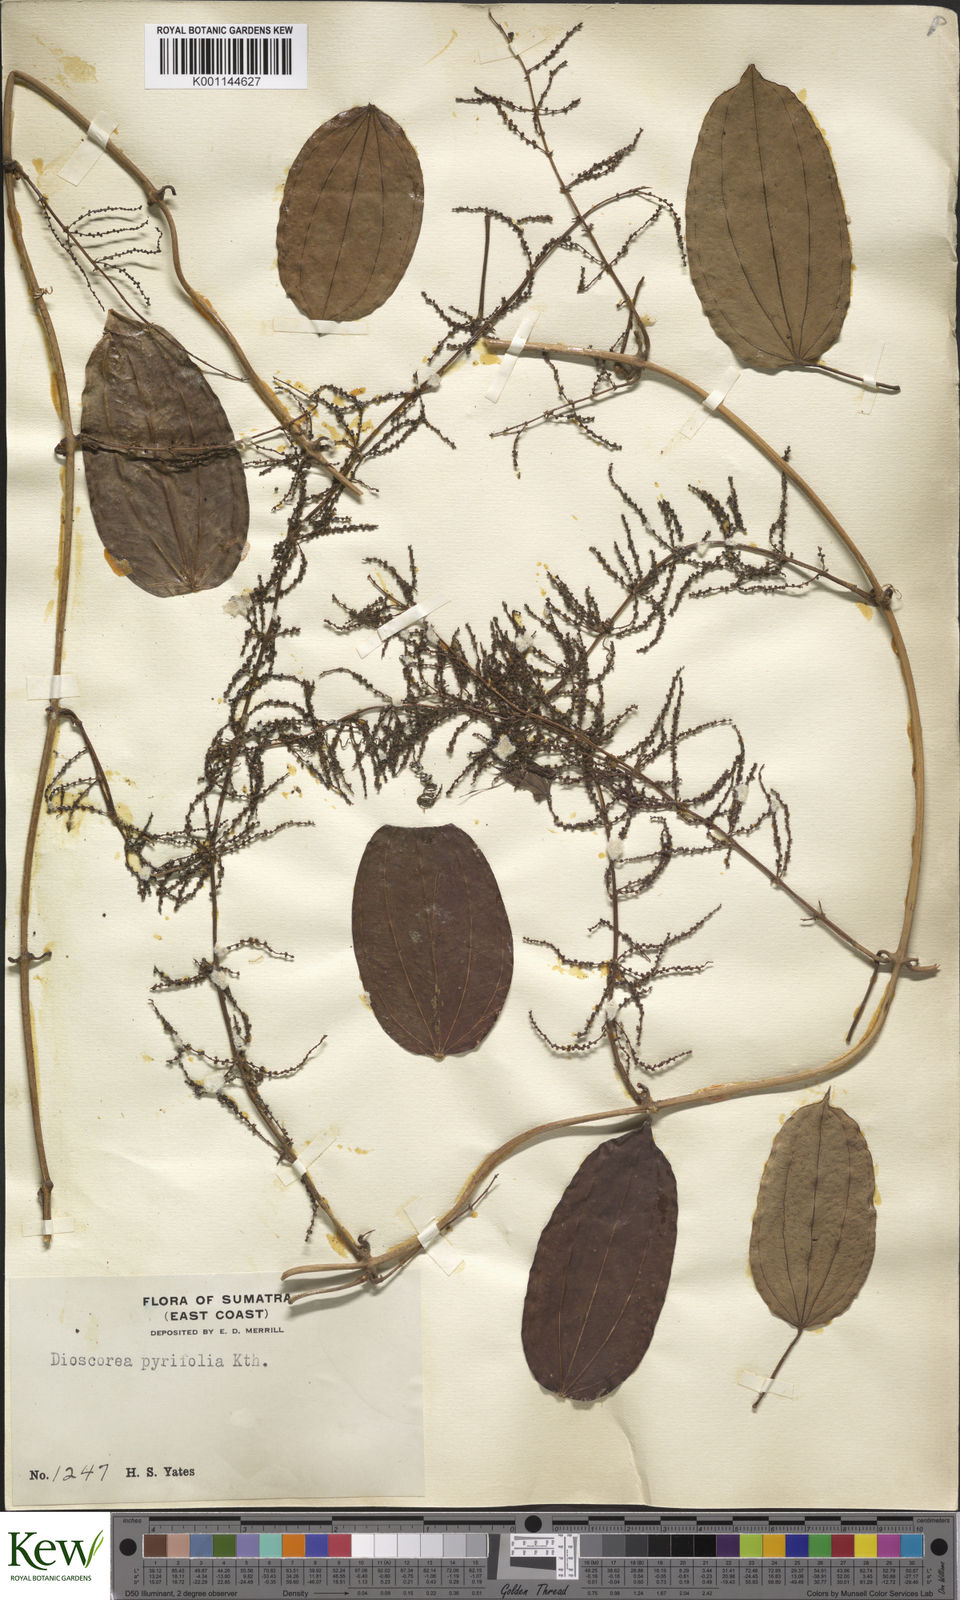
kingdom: Plantae
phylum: Tracheophyta
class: Liliopsida
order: Dioscoreales
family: Dioscoreaceae
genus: Dioscorea
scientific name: Dioscorea pyrifolia
